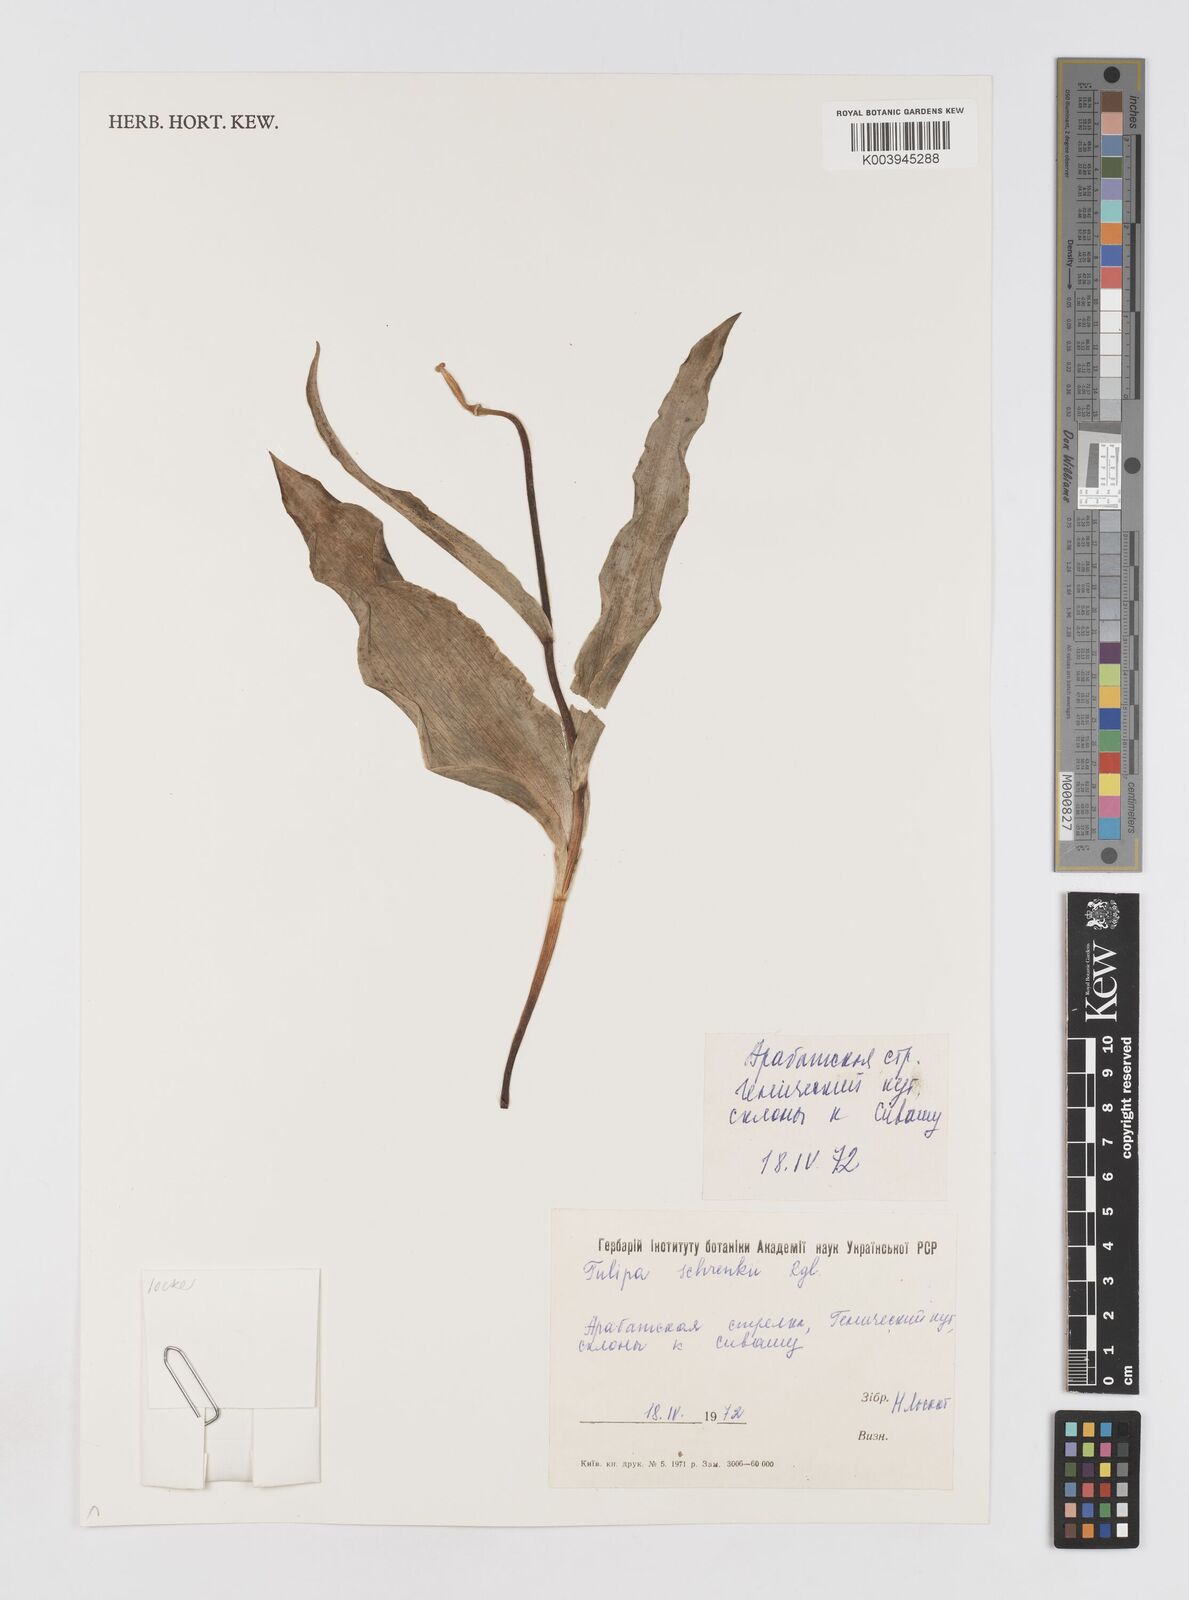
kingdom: Plantae
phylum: Tracheophyta
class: Liliopsida
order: Liliales
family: Liliaceae
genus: Tulipa
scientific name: Tulipa suaveolens
